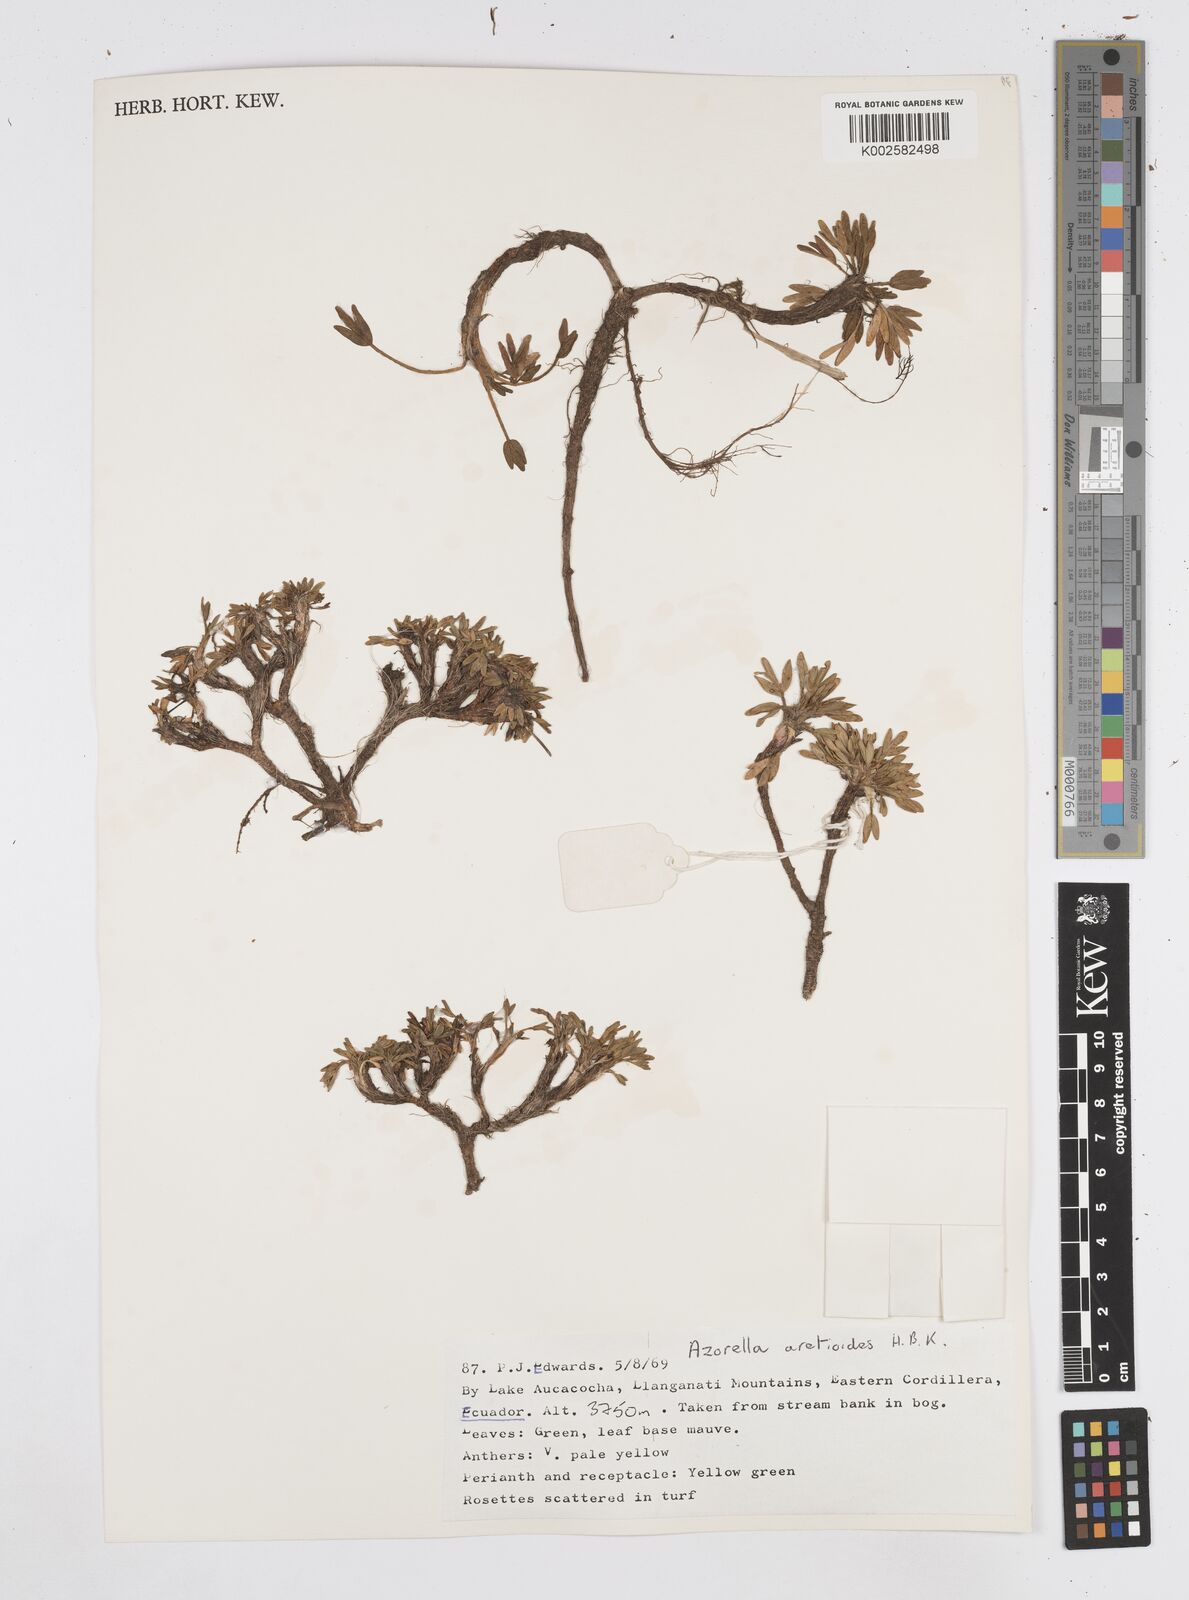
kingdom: Plantae
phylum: Tracheophyta
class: Magnoliopsida
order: Apiales
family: Apiaceae
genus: Azorella
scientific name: Azorella aretioides
